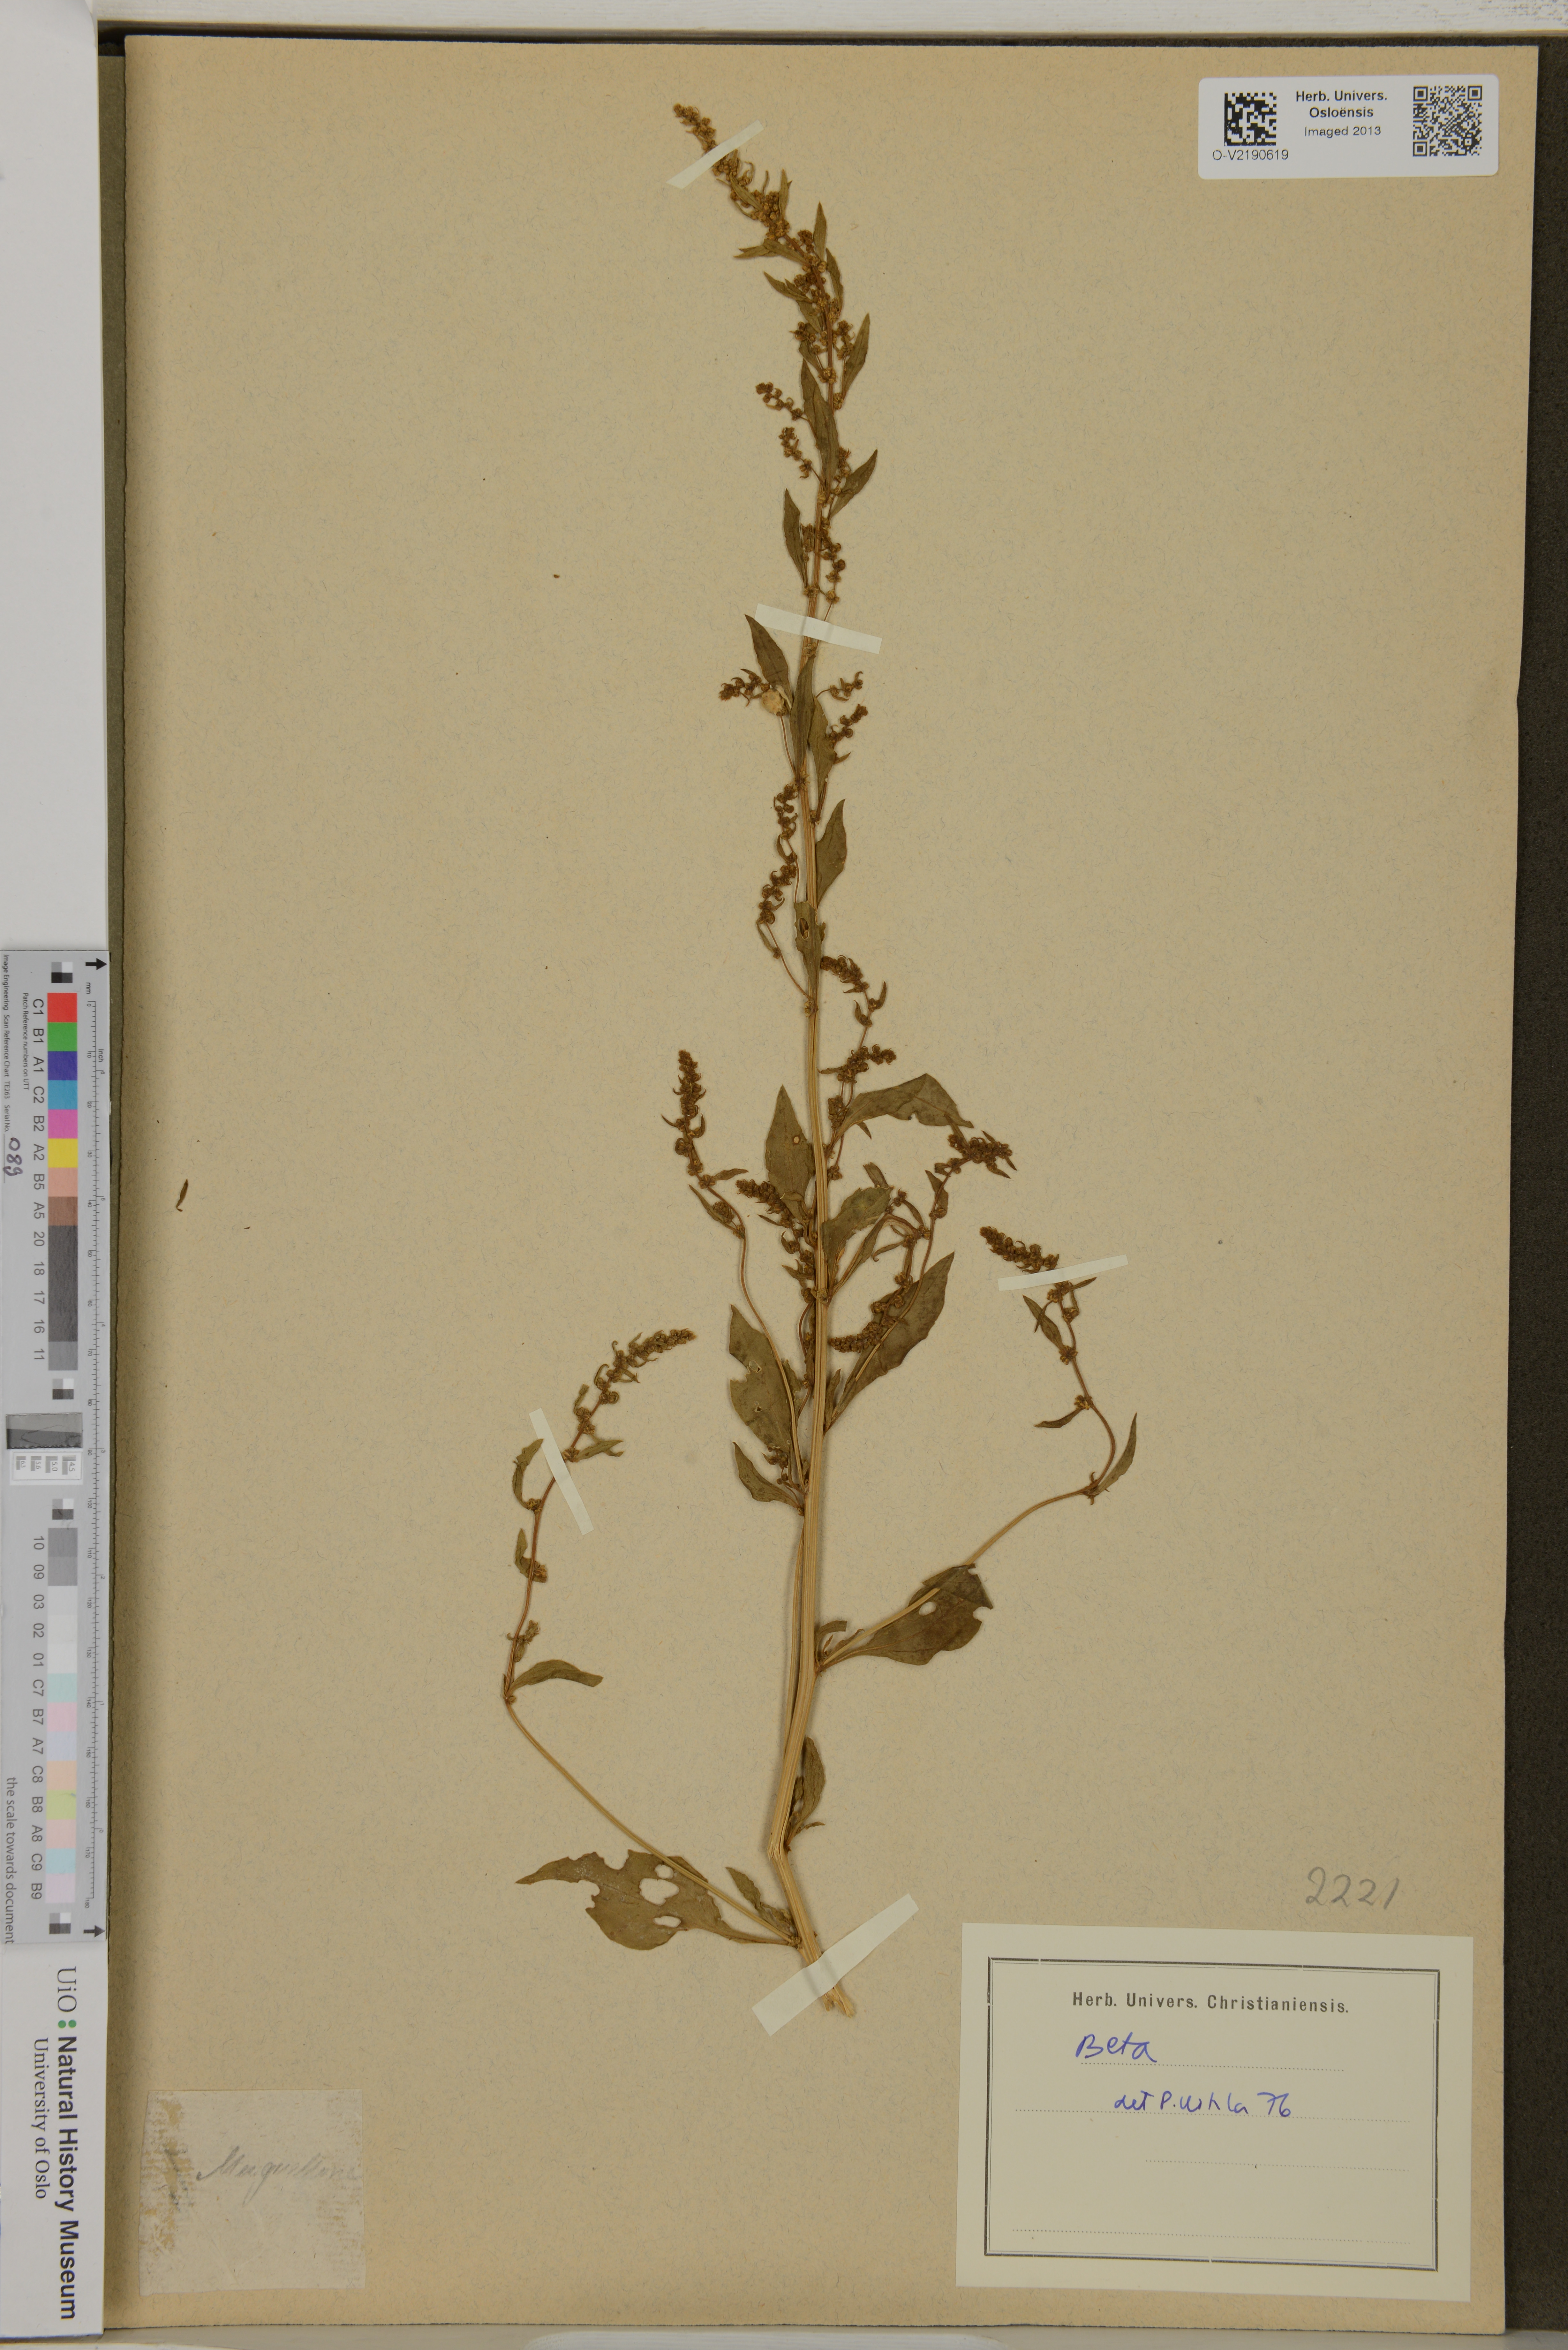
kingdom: Plantae
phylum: Tracheophyta
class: Magnoliopsida
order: Caryophyllales
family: Amaranthaceae
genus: Beta
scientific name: Beta
